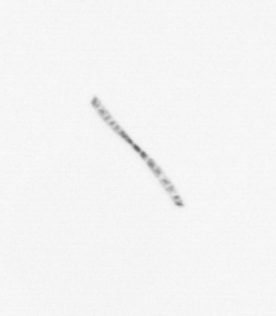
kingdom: Chromista
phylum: Ochrophyta
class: Bacillariophyceae
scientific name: Bacillariophyceae
